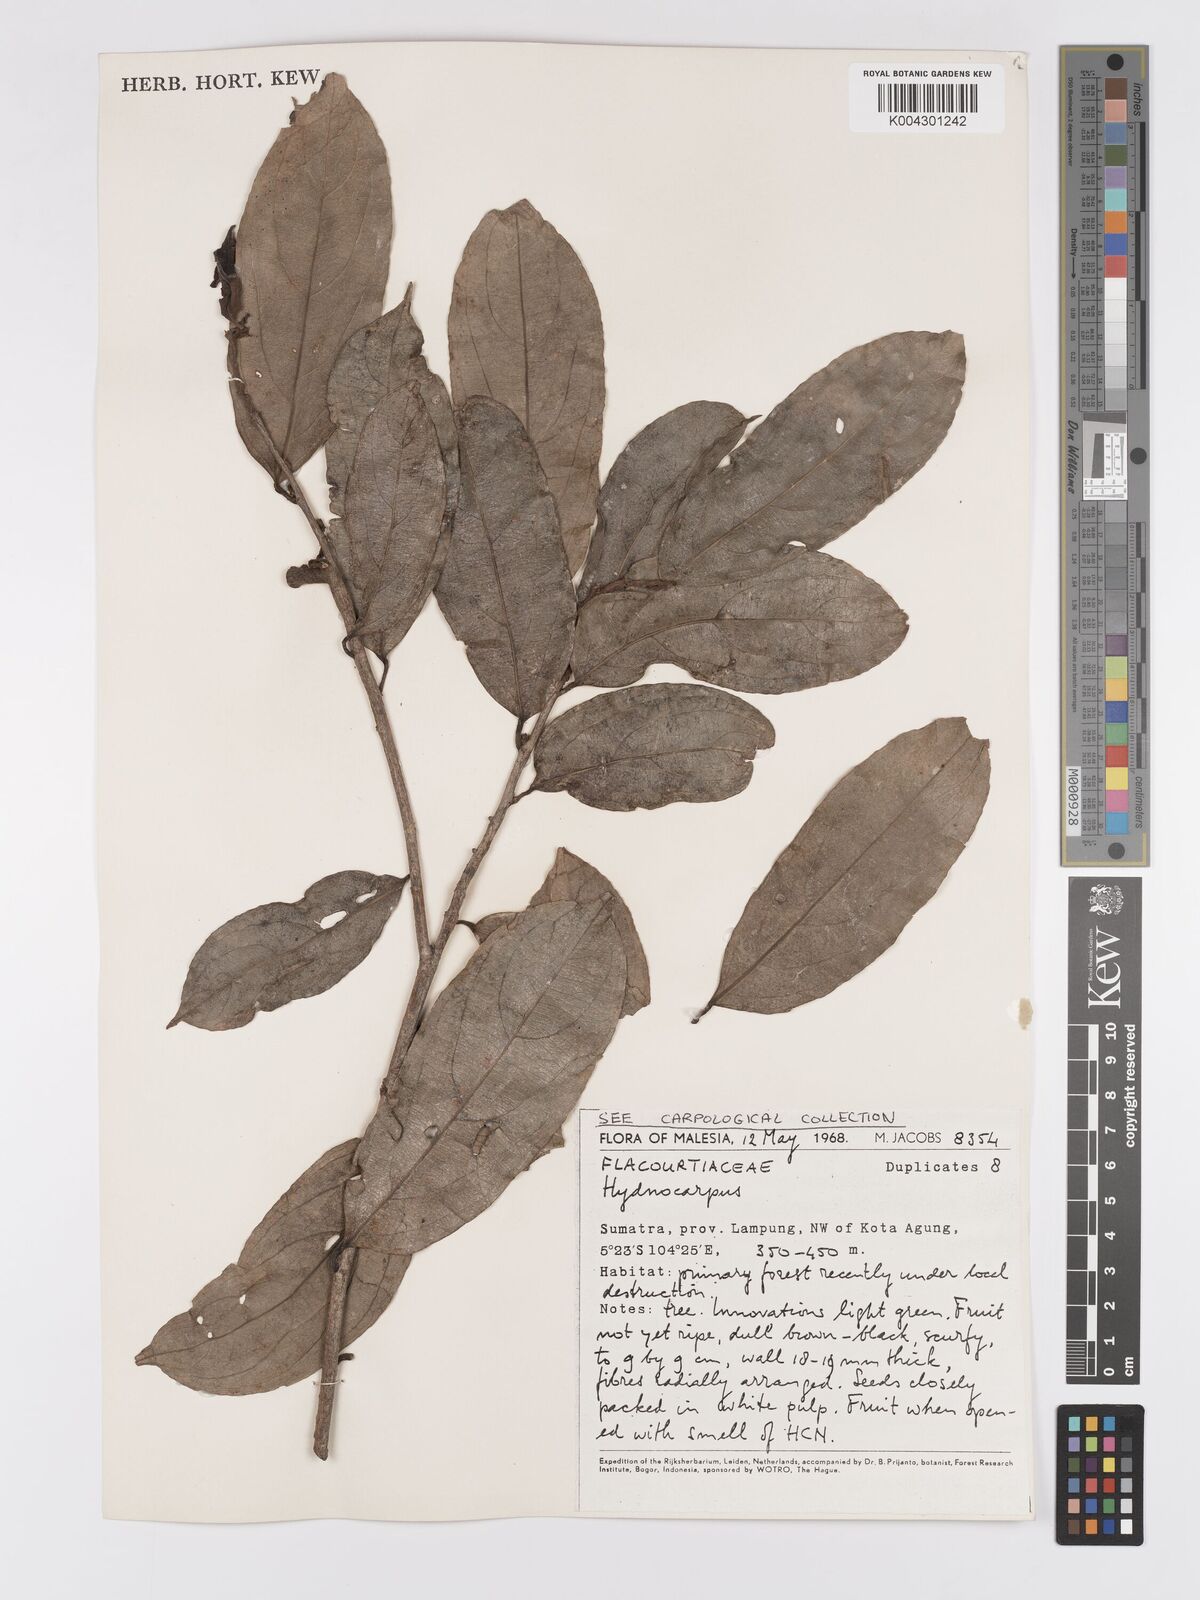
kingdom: Plantae
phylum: Tracheophyta
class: Magnoliopsida
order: Malpighiales
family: Achariaceae
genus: Hydnocarpus
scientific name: Hydnocarpus
